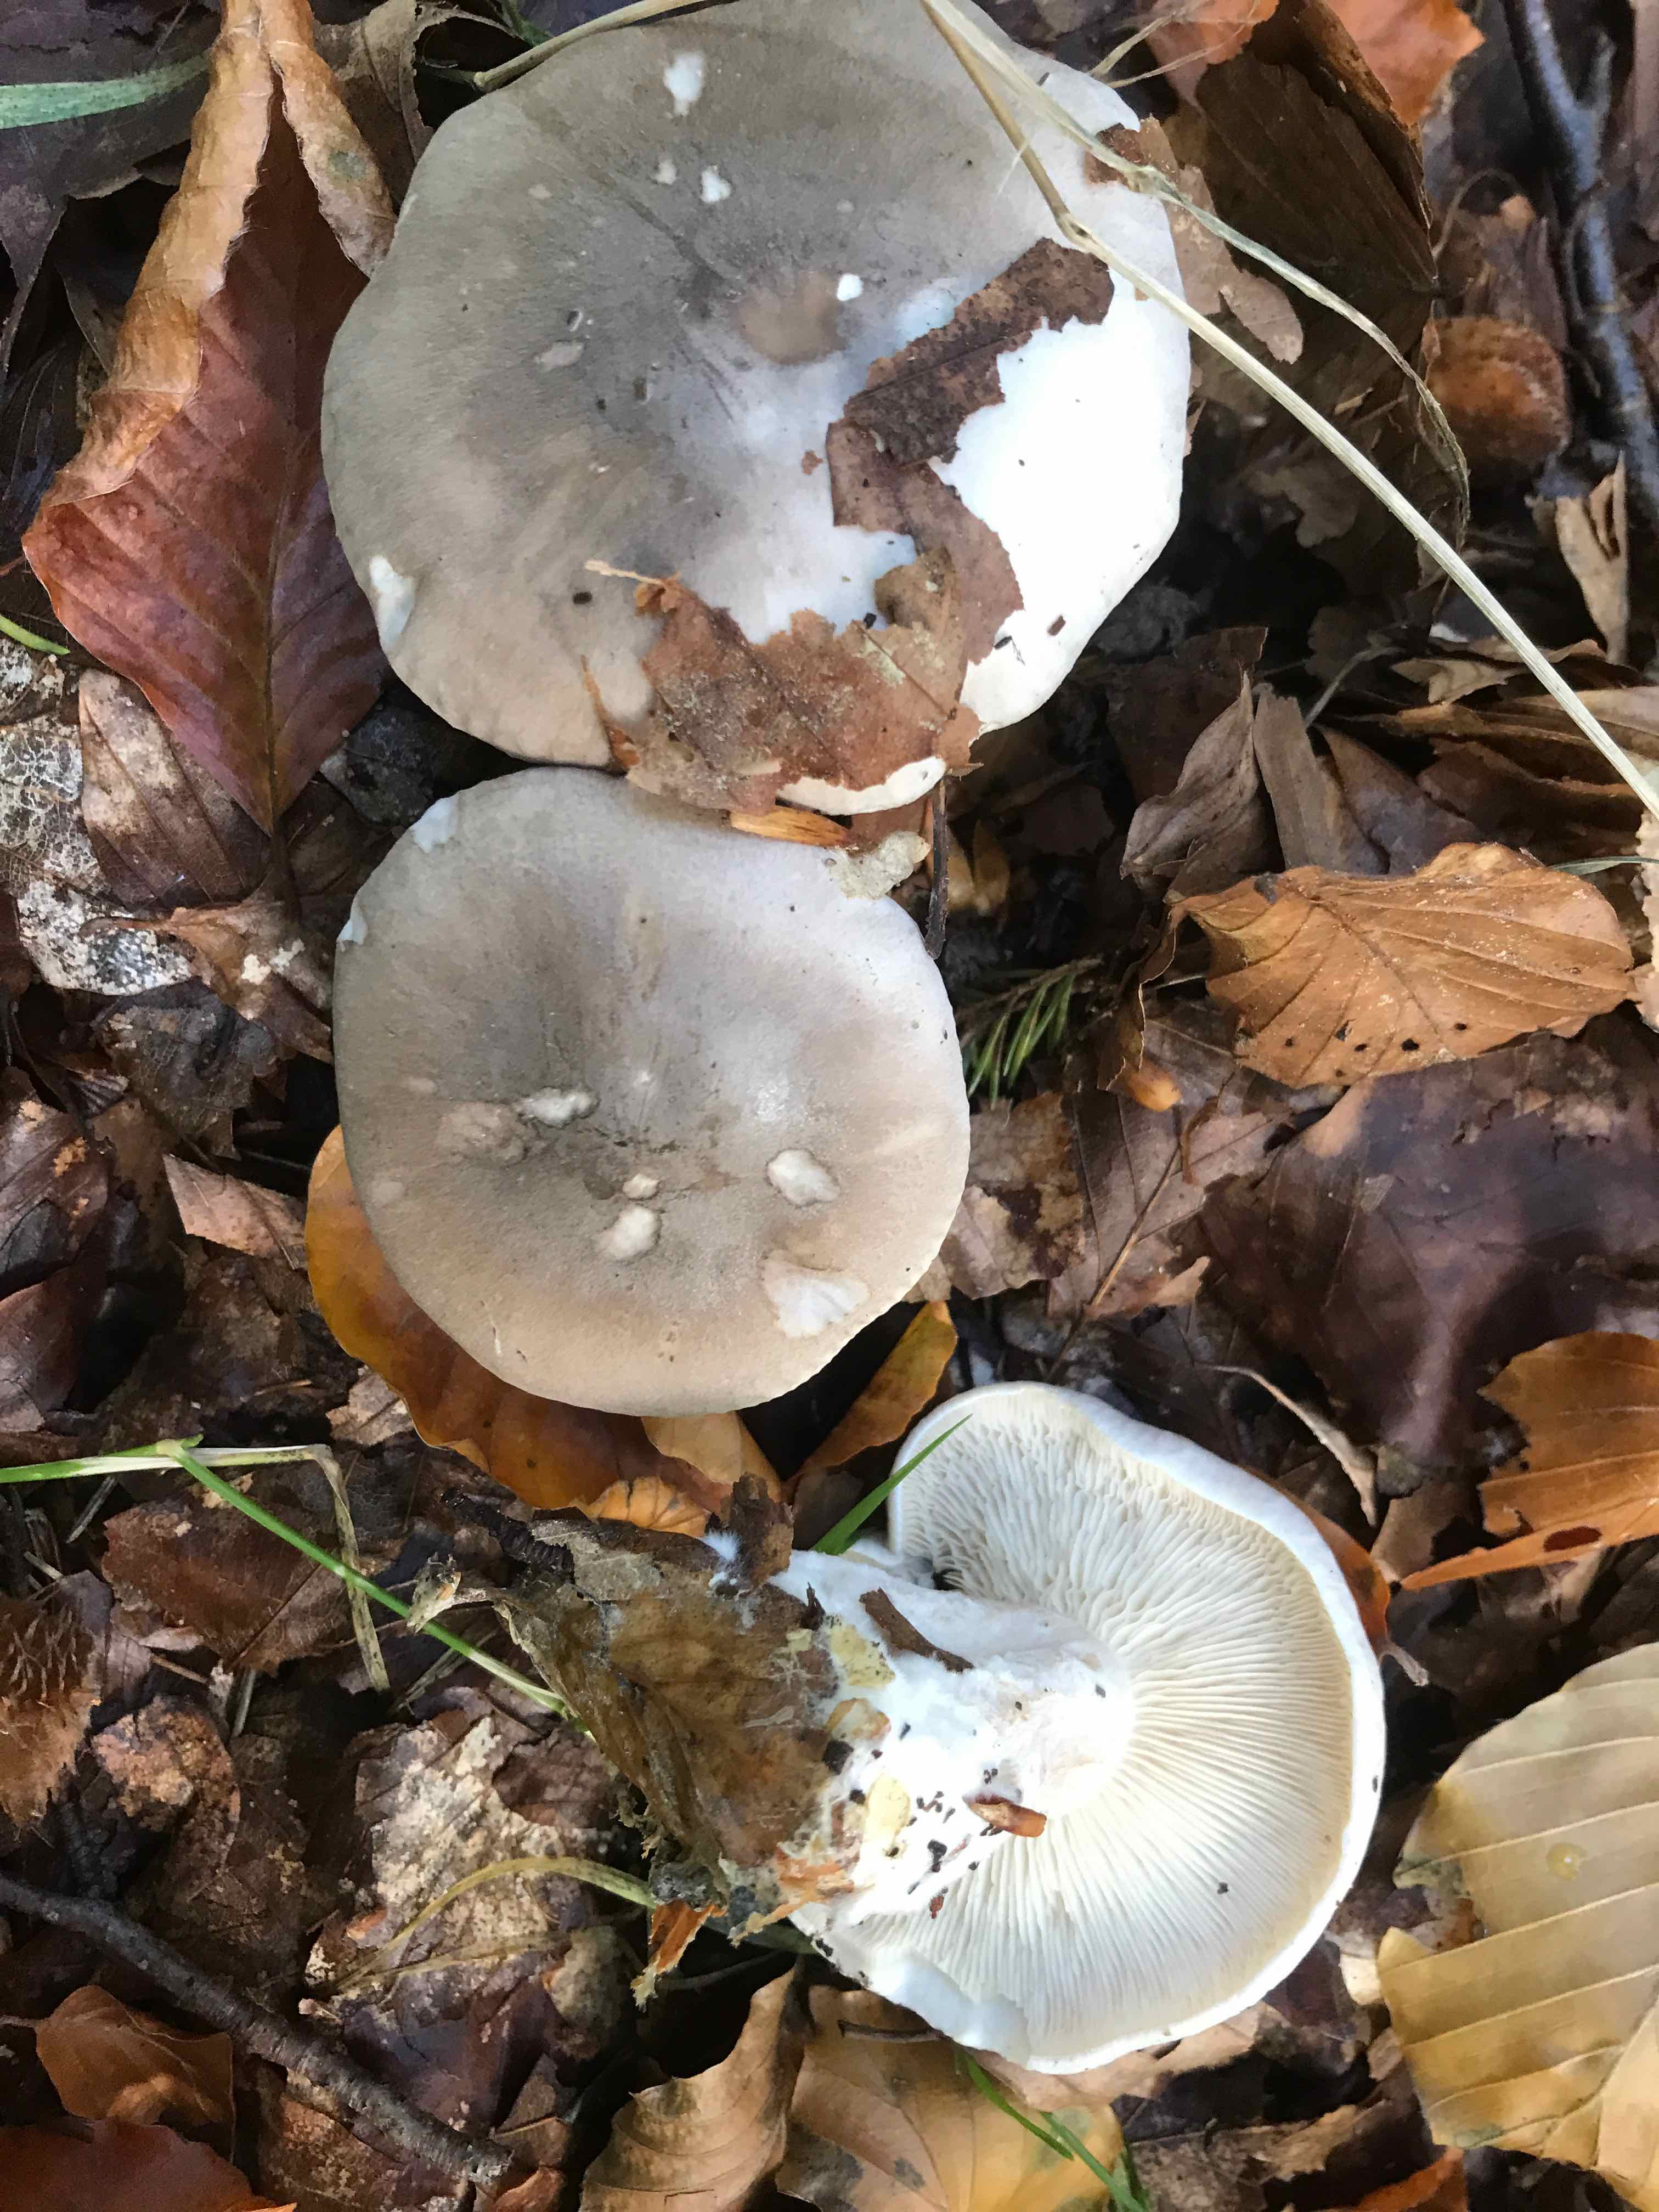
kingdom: Fungi
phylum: Basidiomycota
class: Agaricomycetes
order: Agaricales
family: Tricholomataceae
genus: Clitocybe
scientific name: Clitocybe nebularis
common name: tåge-tragthat
